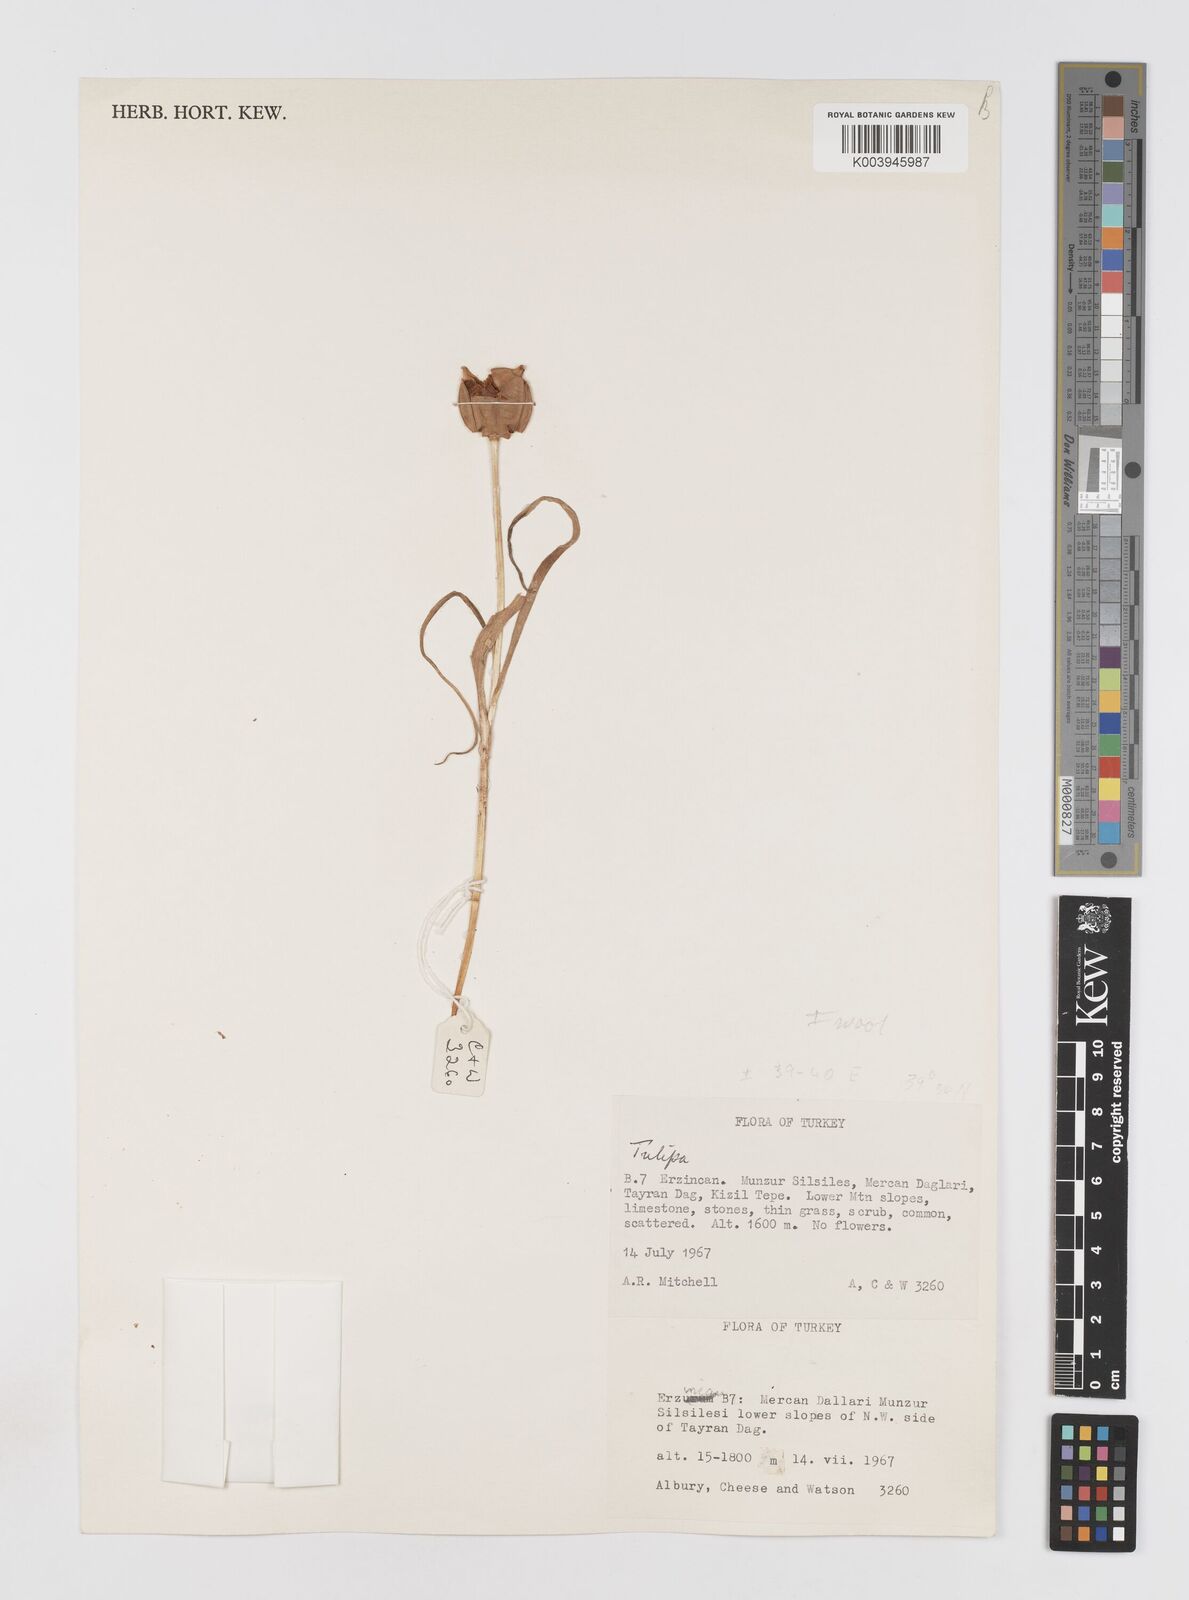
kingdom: Plantae
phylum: Tracheophyta
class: Liliopsida
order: Liliales
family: Liliaceae
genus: Tulipa
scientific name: Tulipa julia
